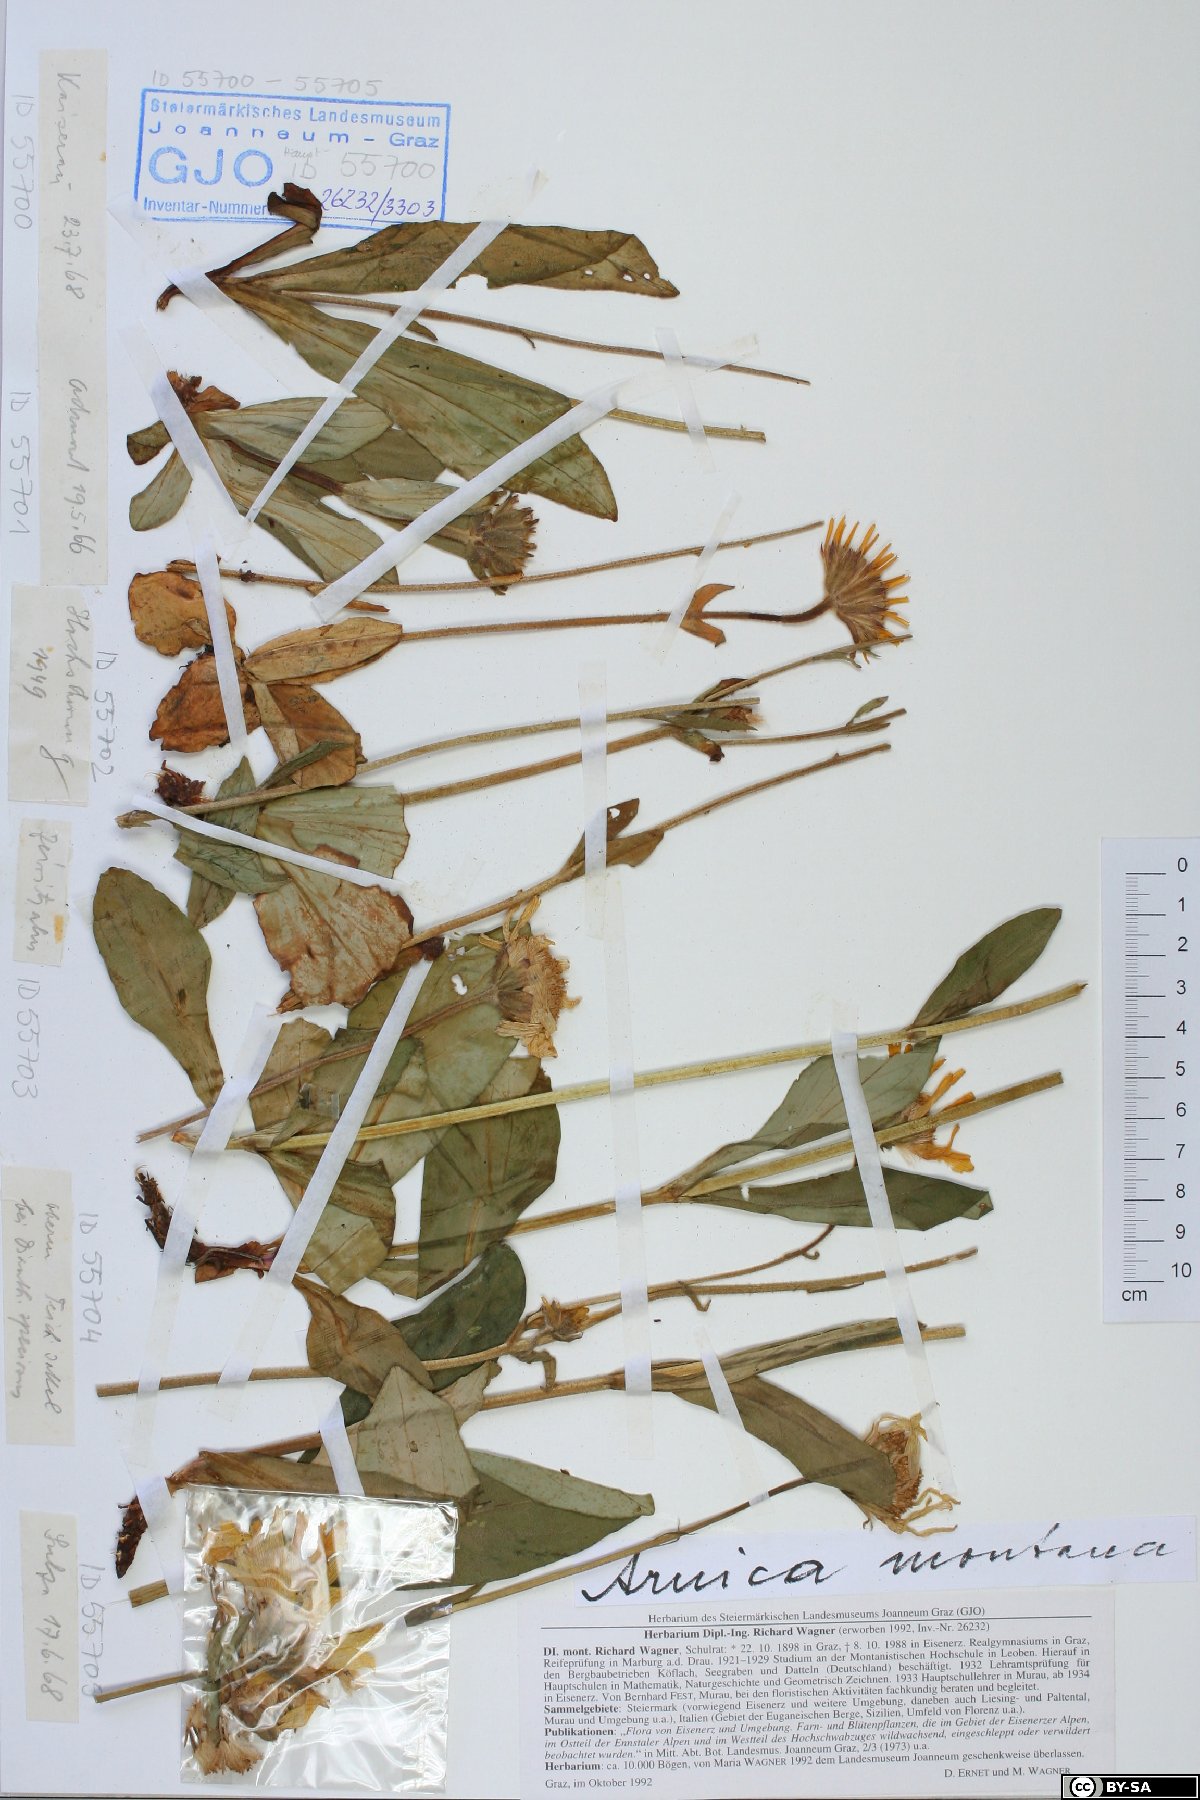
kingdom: Plantae
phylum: Tracheophyta
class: Magnoliopsida
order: Asterales
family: Asteraceae
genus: Arnica
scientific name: Arnica montana
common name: Leopard's bane
